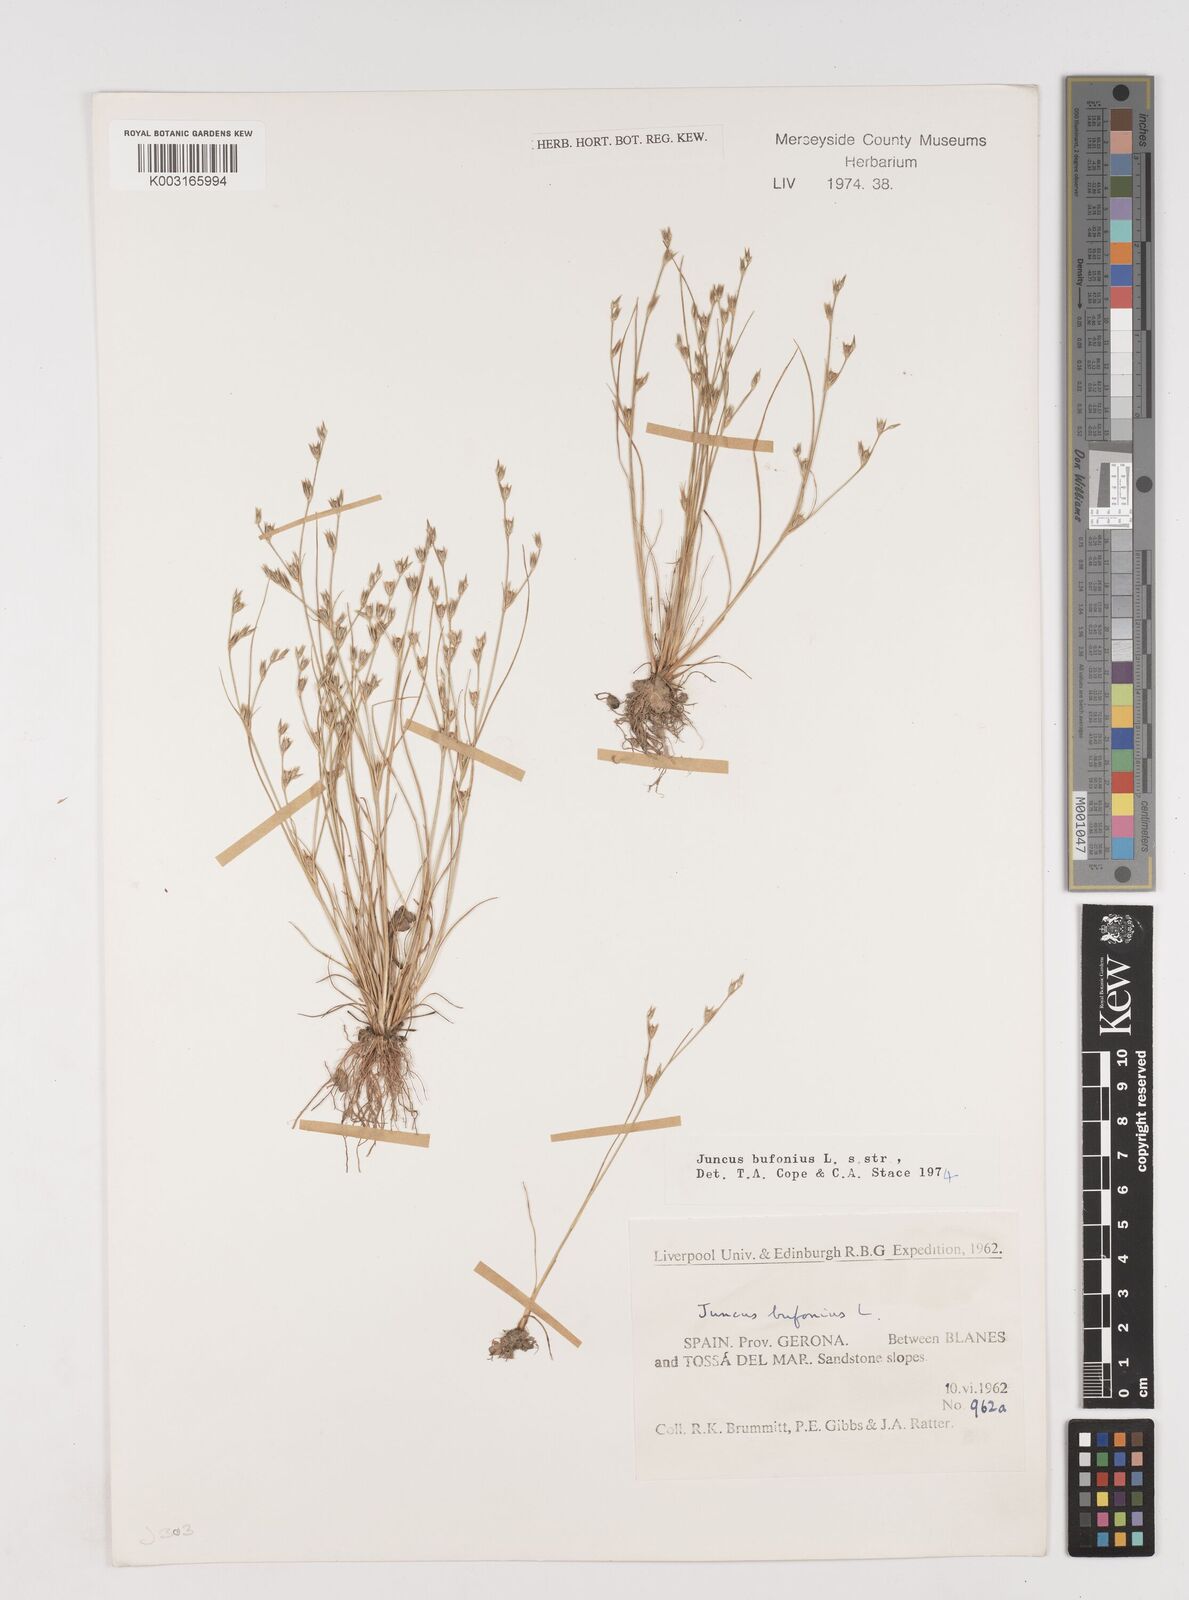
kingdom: Plantae
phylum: Tracheophyta
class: Liliopsida
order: Poales
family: Juncaceae
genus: Juncus
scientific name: Juncus bufonius
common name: Toad rush
